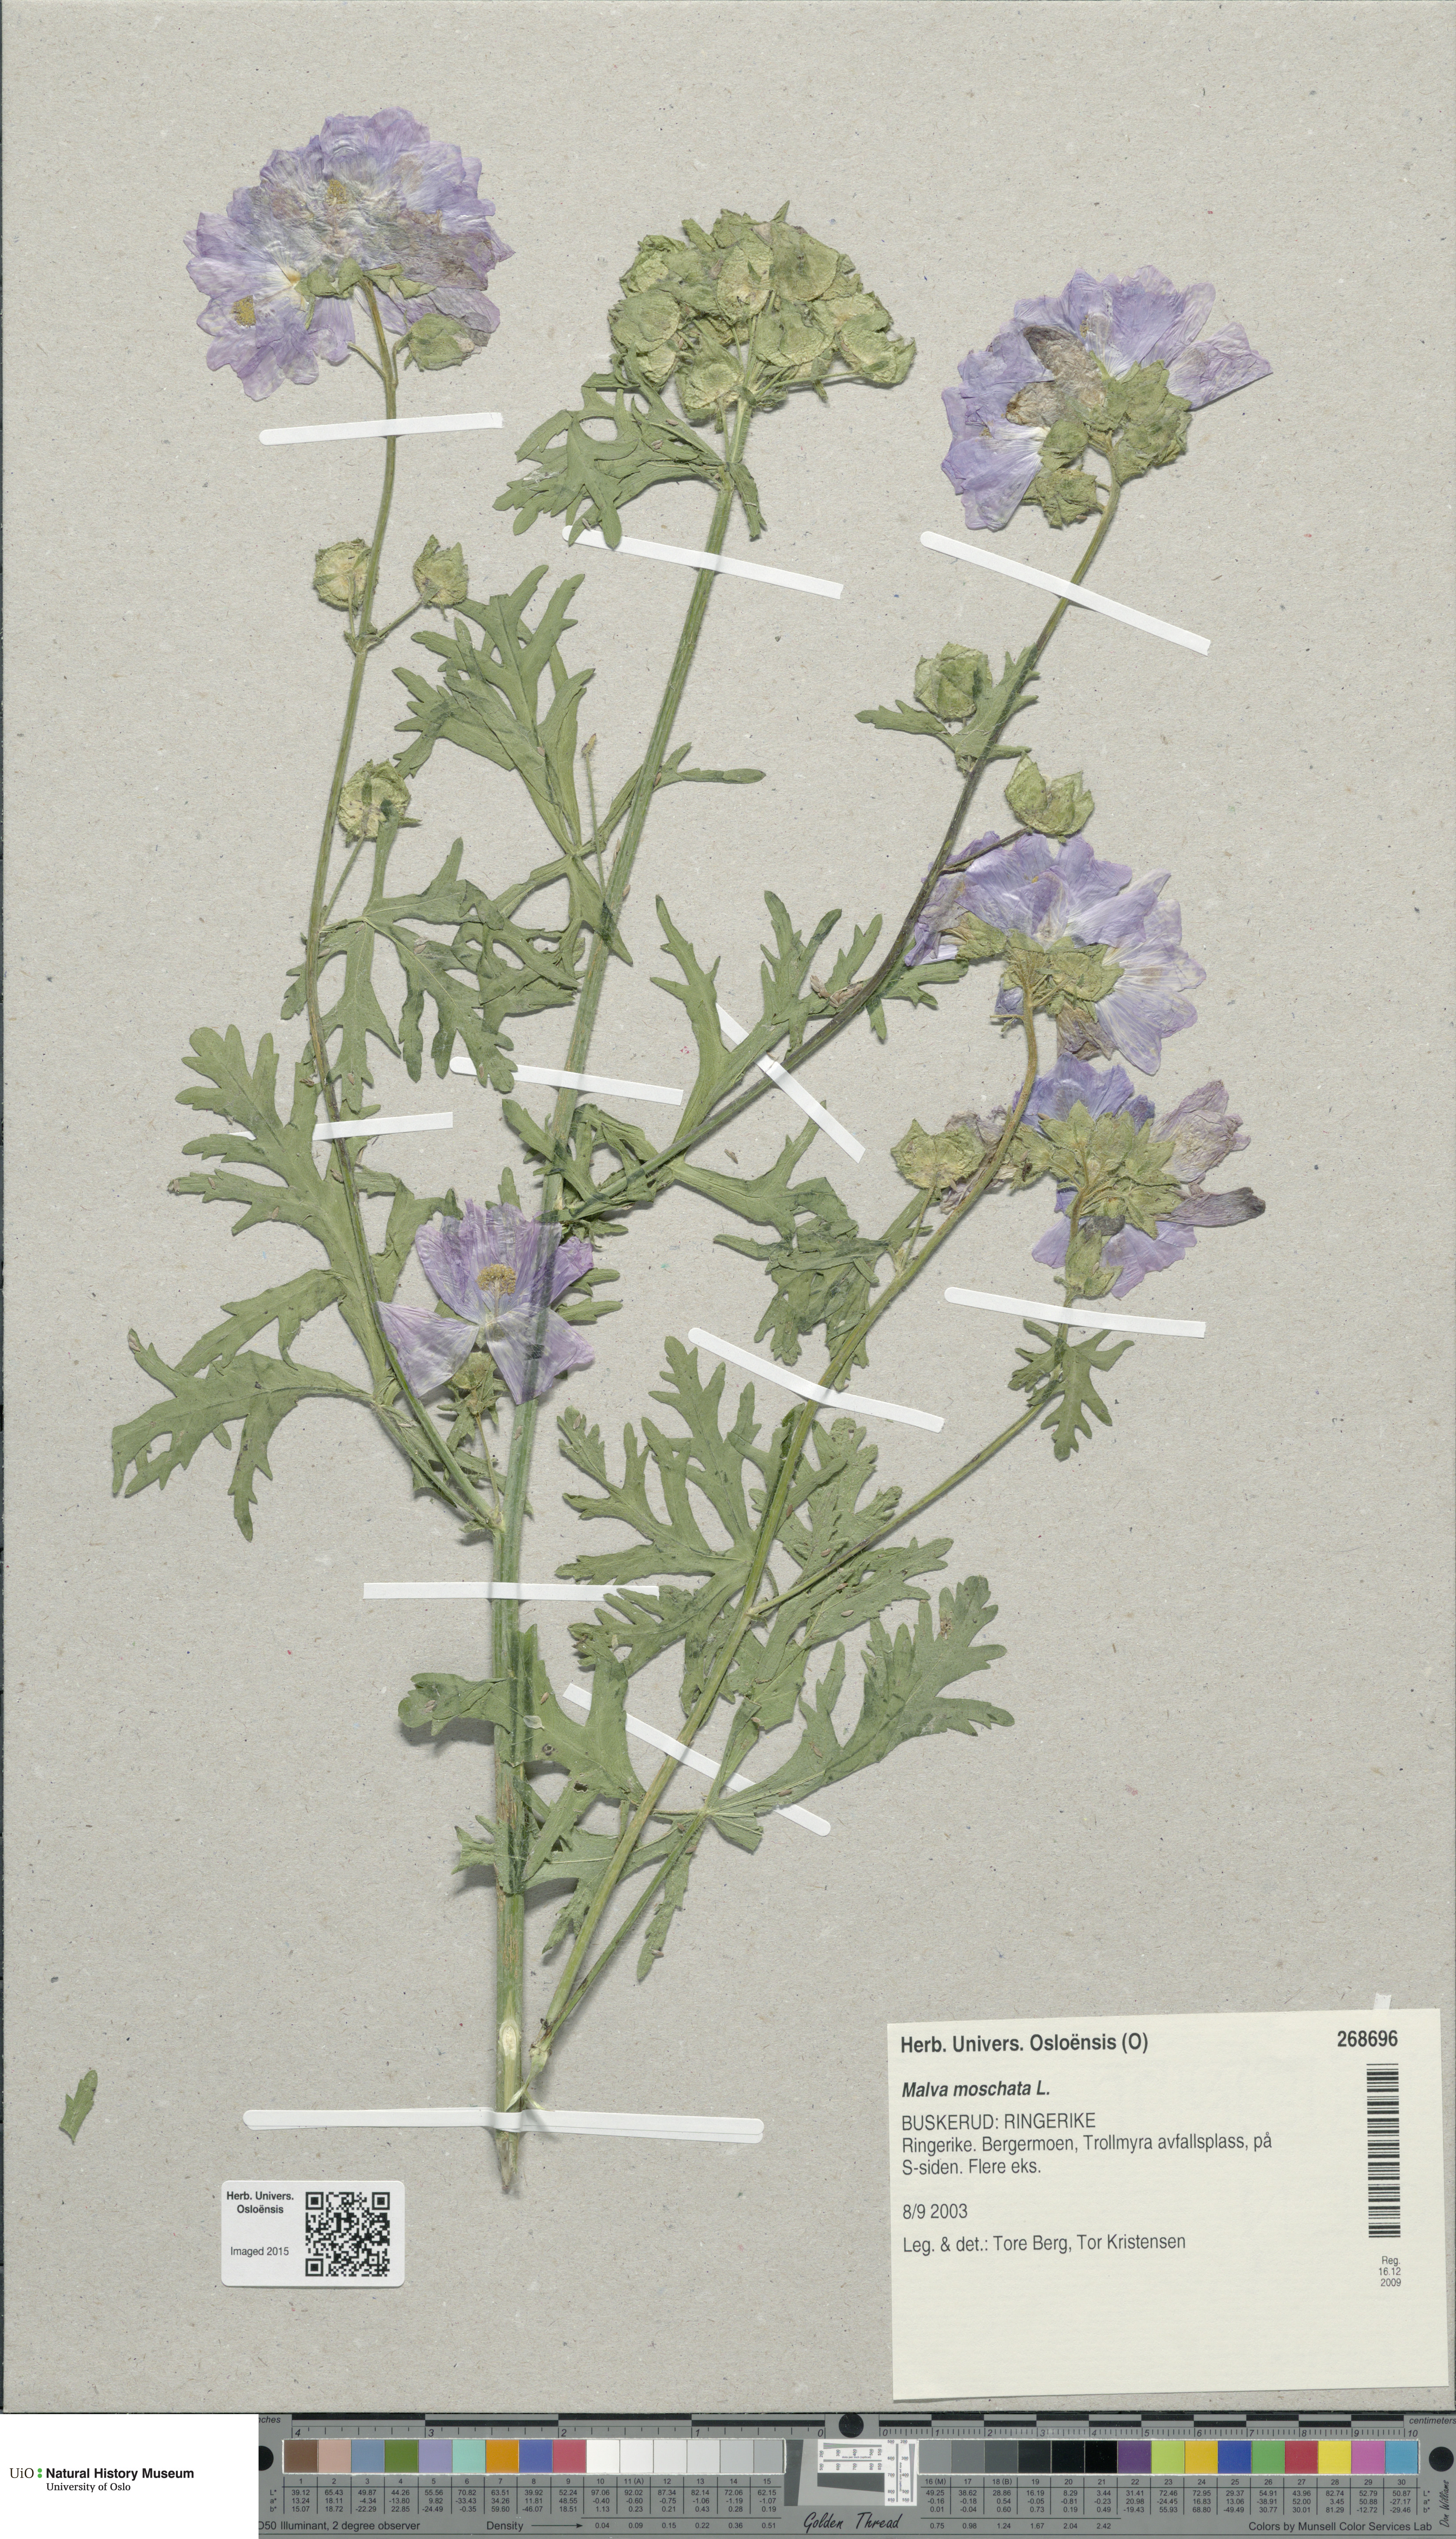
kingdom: Plantae
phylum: Tracheophyta
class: Magnoliopsida
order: Malvales
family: Malvaceae
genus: Malva
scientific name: Malva moschata
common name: Musk mallow
